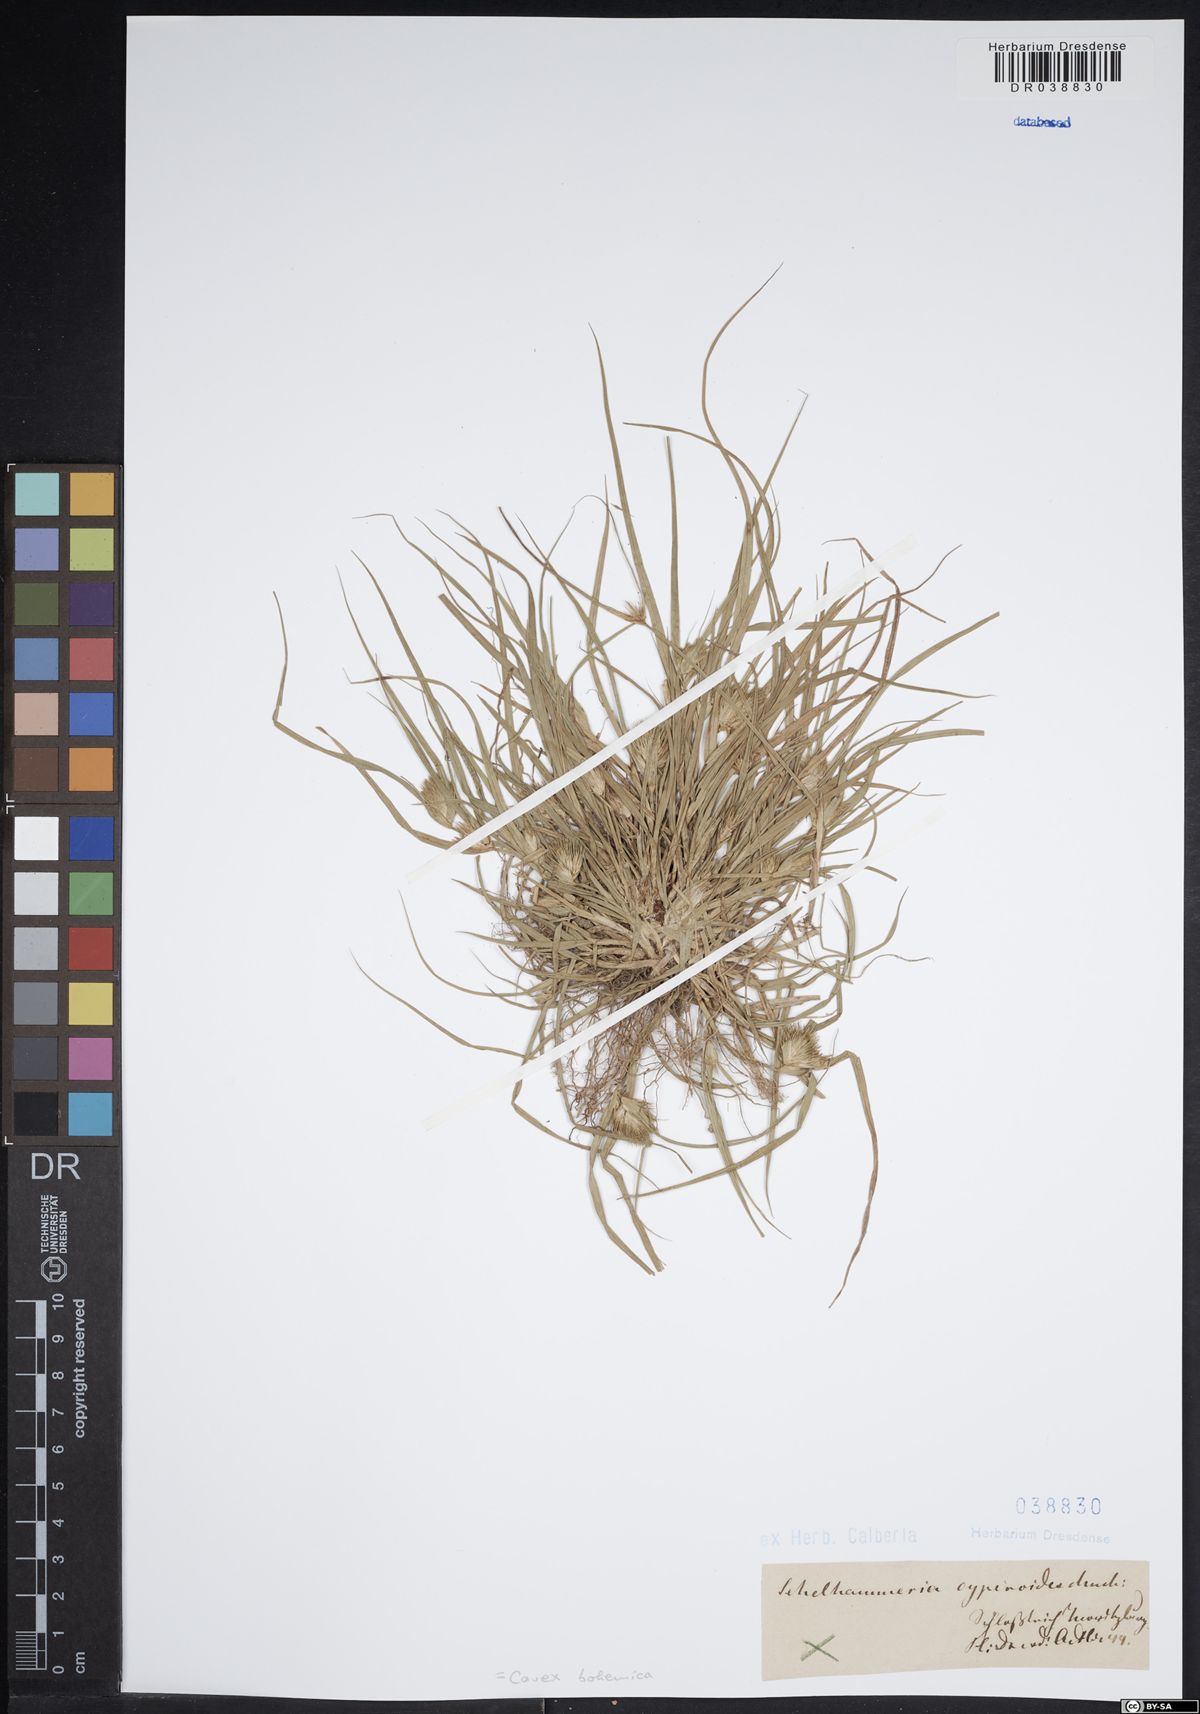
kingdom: Plantae
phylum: Tracheophyta
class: Liliopsida
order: Poales
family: Cyperaceae
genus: Carex
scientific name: Carex bohemica
